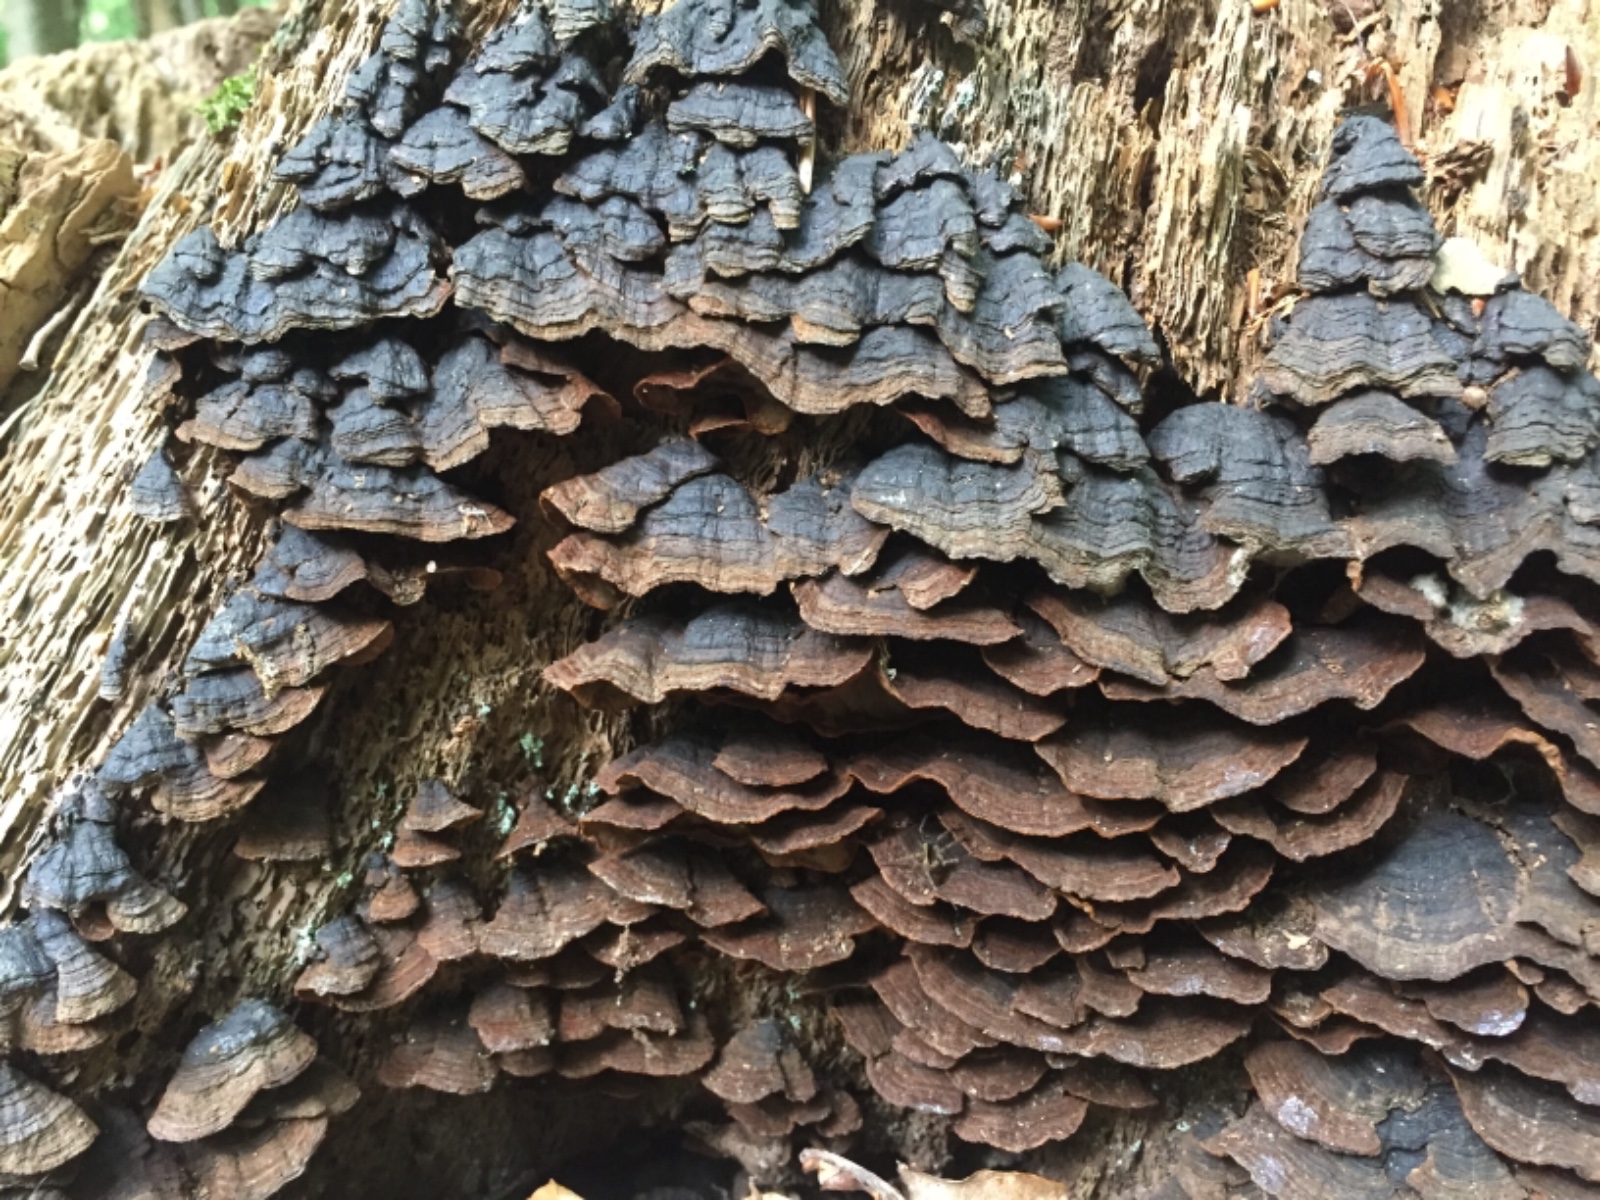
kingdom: Fungi
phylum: Basidiomycota
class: Agaricomycetes
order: Hymenochaetales
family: Hymenochaetaceae
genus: Hymenochaete
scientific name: Hymenochaete rubiginosa
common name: stiv ruslædersvamp
